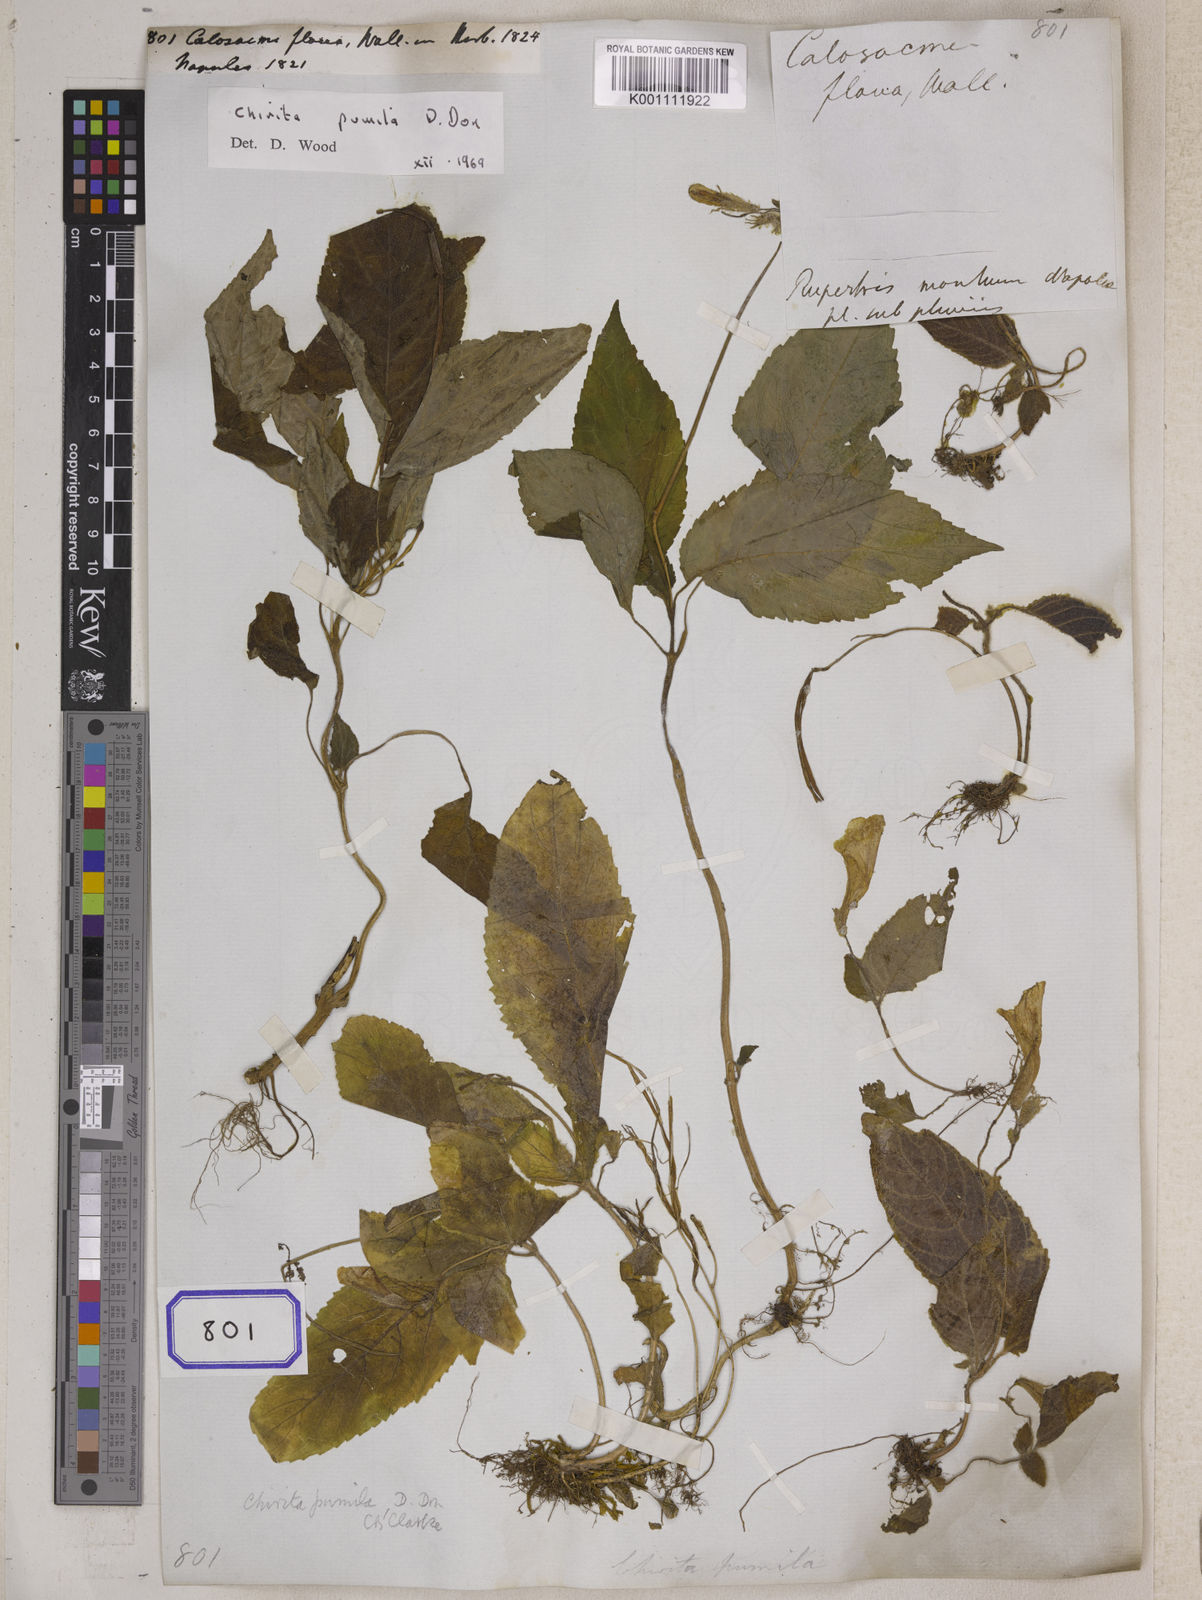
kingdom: Plantae
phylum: Tracheophyta
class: Magnoliopsida
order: Lamiales
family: Gesneriaceae
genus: Henckelia
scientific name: Henckelia pumila
